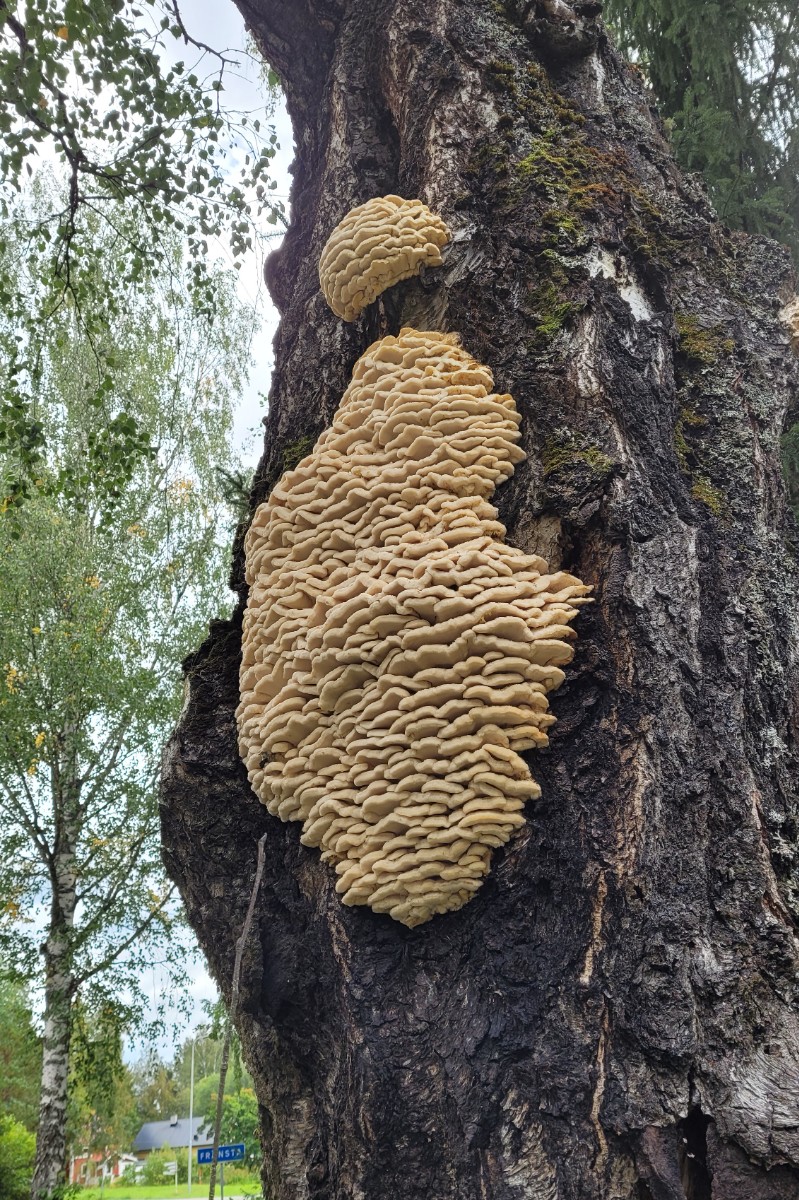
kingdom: Fungi
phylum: Basidiomycota
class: Agaricomycetes
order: Polyporales
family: Meruliaceae
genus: Climacodon
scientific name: Climacodon septentrionalis
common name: kæmpepigsvamp
